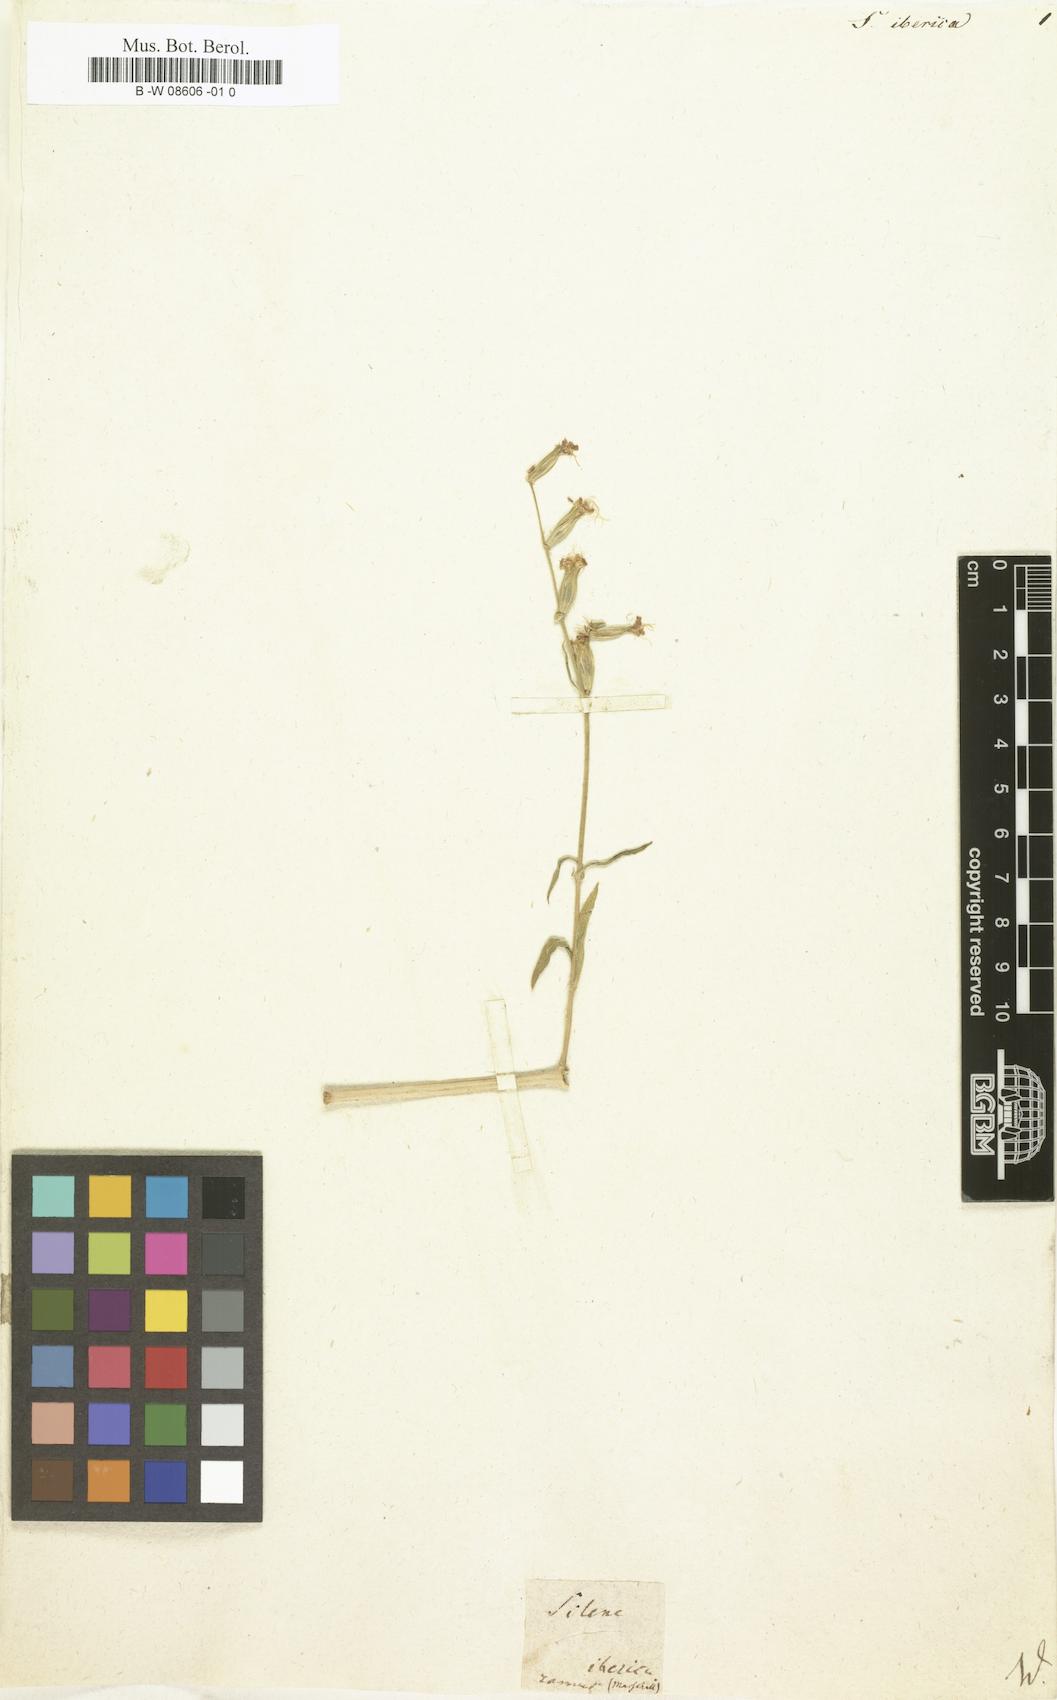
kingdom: Plantae
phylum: Tracheophyta
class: Magnoliopsida
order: Caryophyllales
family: Caryophyllaceae
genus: Silene
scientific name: Silene iberica
